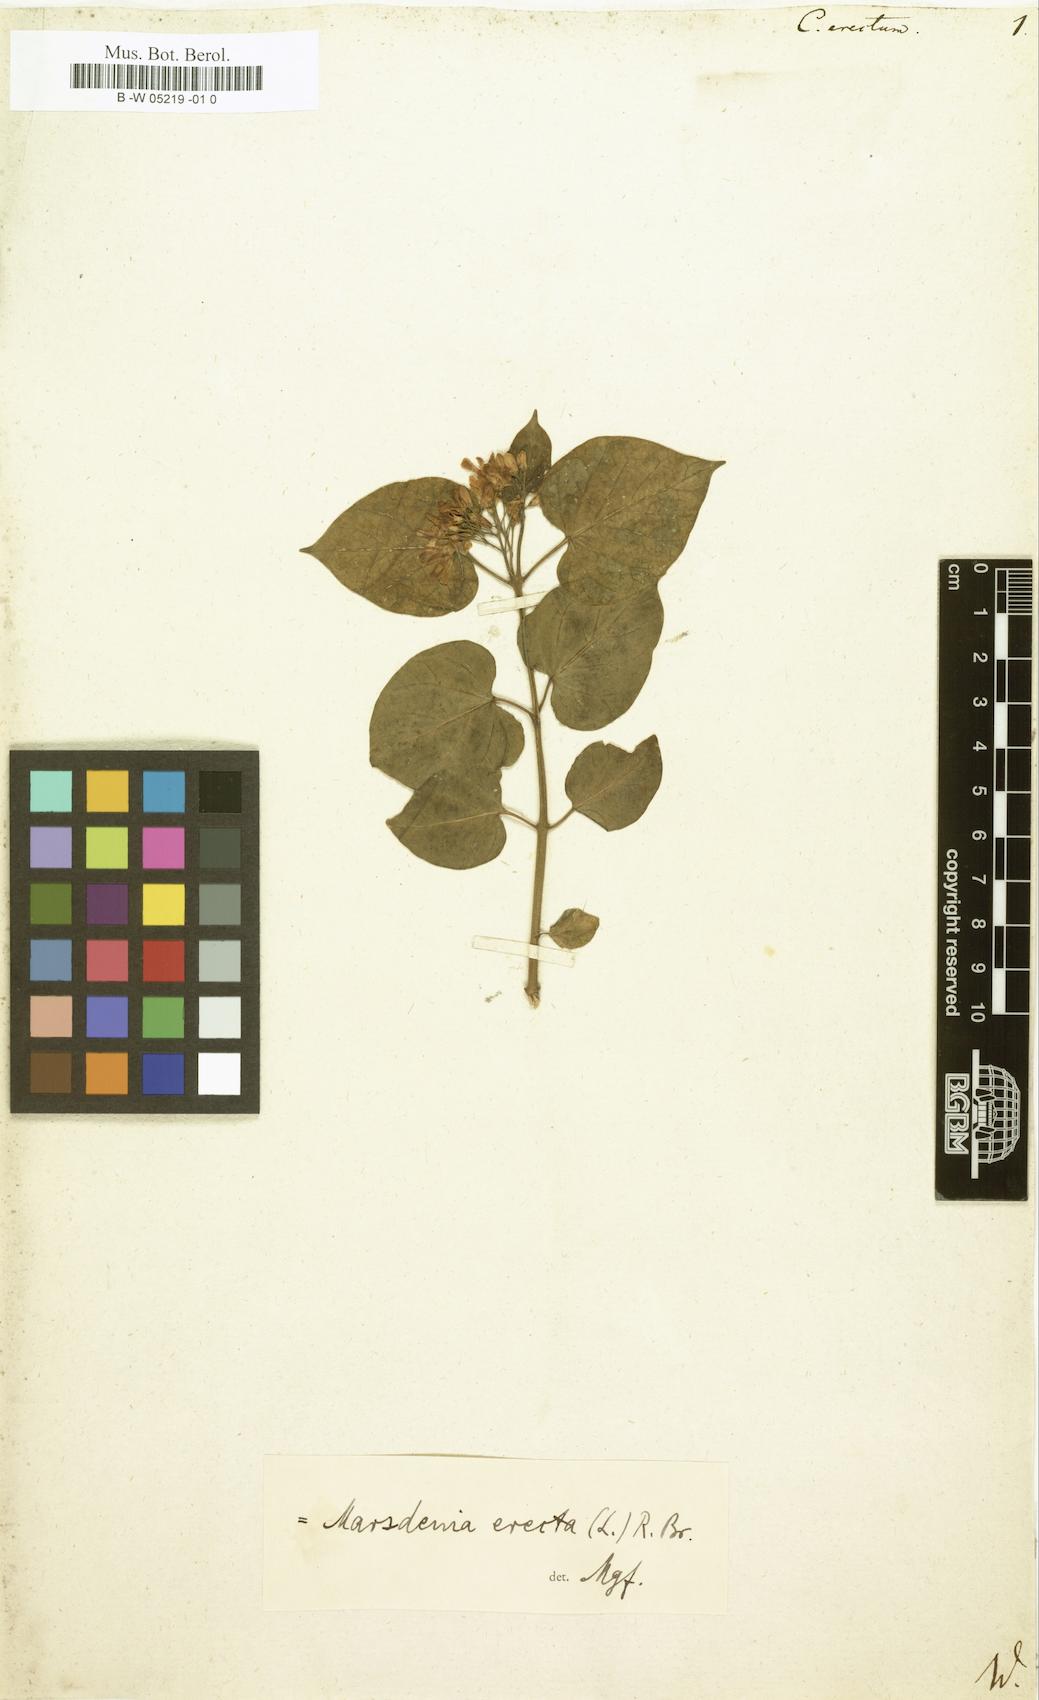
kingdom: Plantae
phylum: Tracheophyta
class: Magnoliopsida
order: Gentianales
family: Apocynaceae
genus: Cionura
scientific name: Cionura erecta
